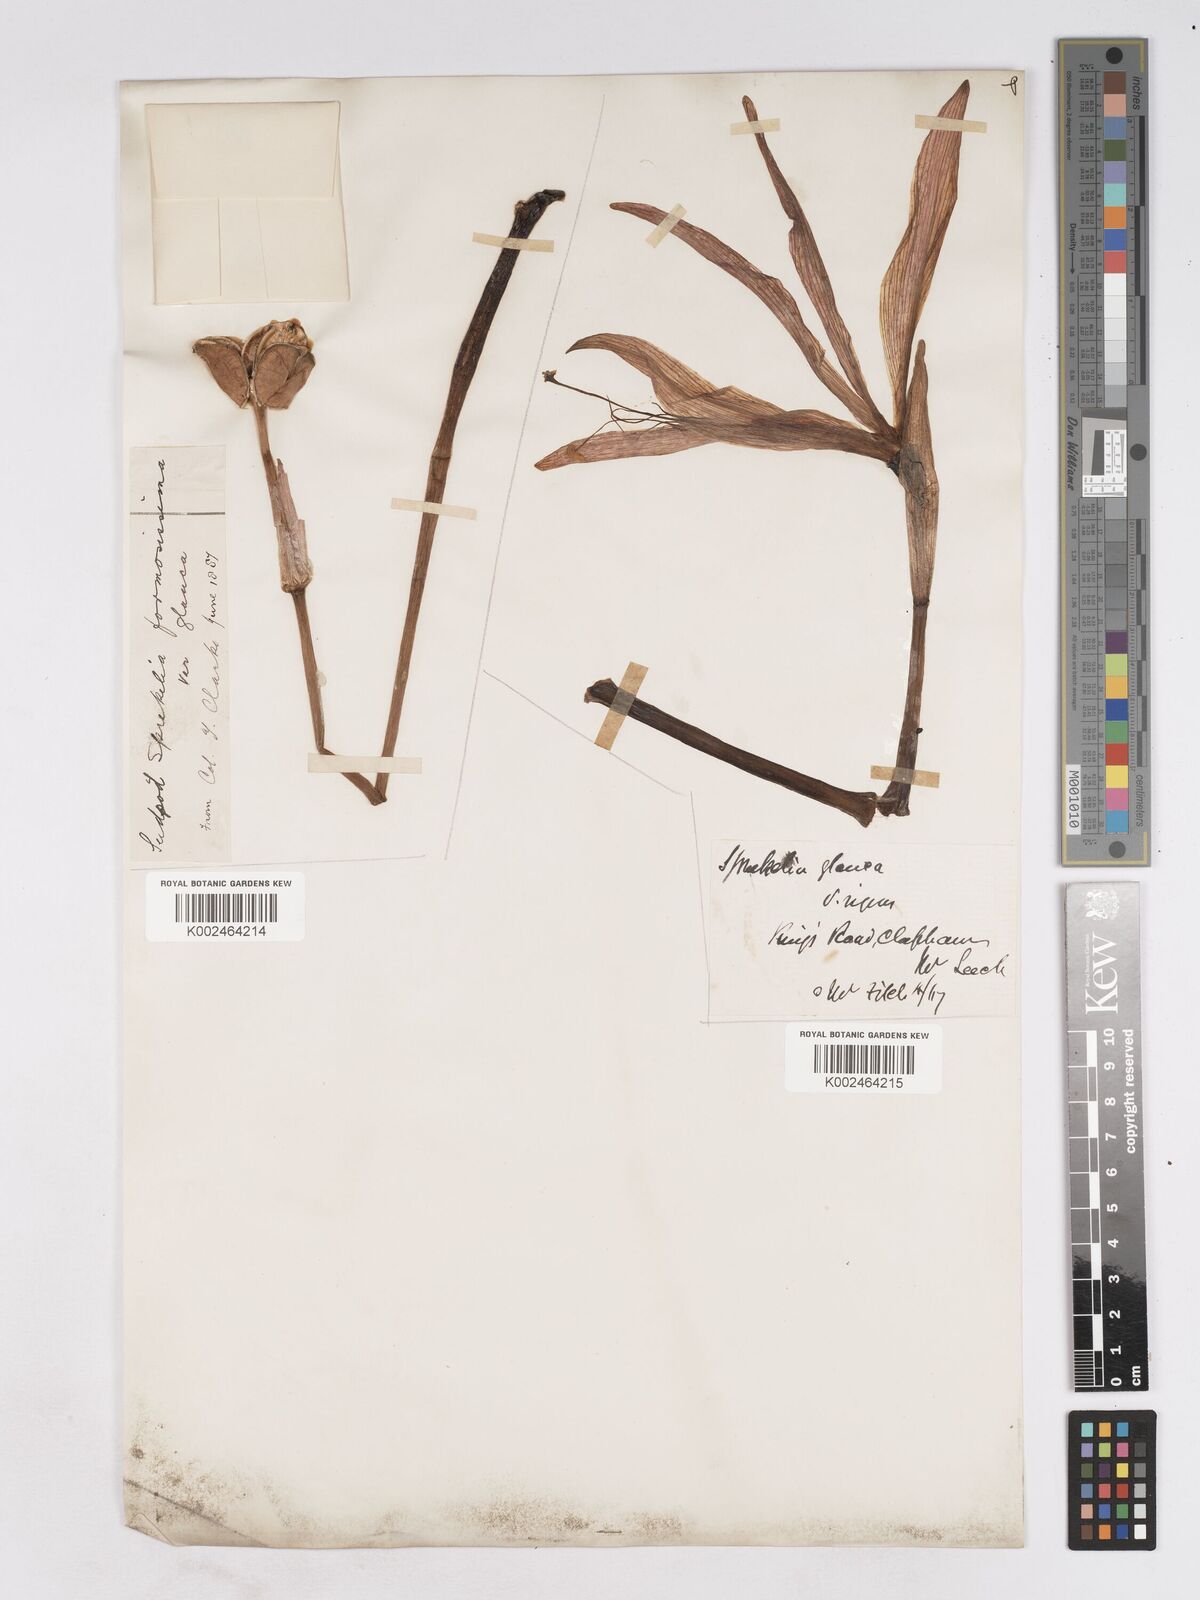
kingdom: Plantae
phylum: Tracheophyta
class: Liliopsida
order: Asparagales
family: Amaryllidaceae
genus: Sprekelia
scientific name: Sprekelia formosissima
